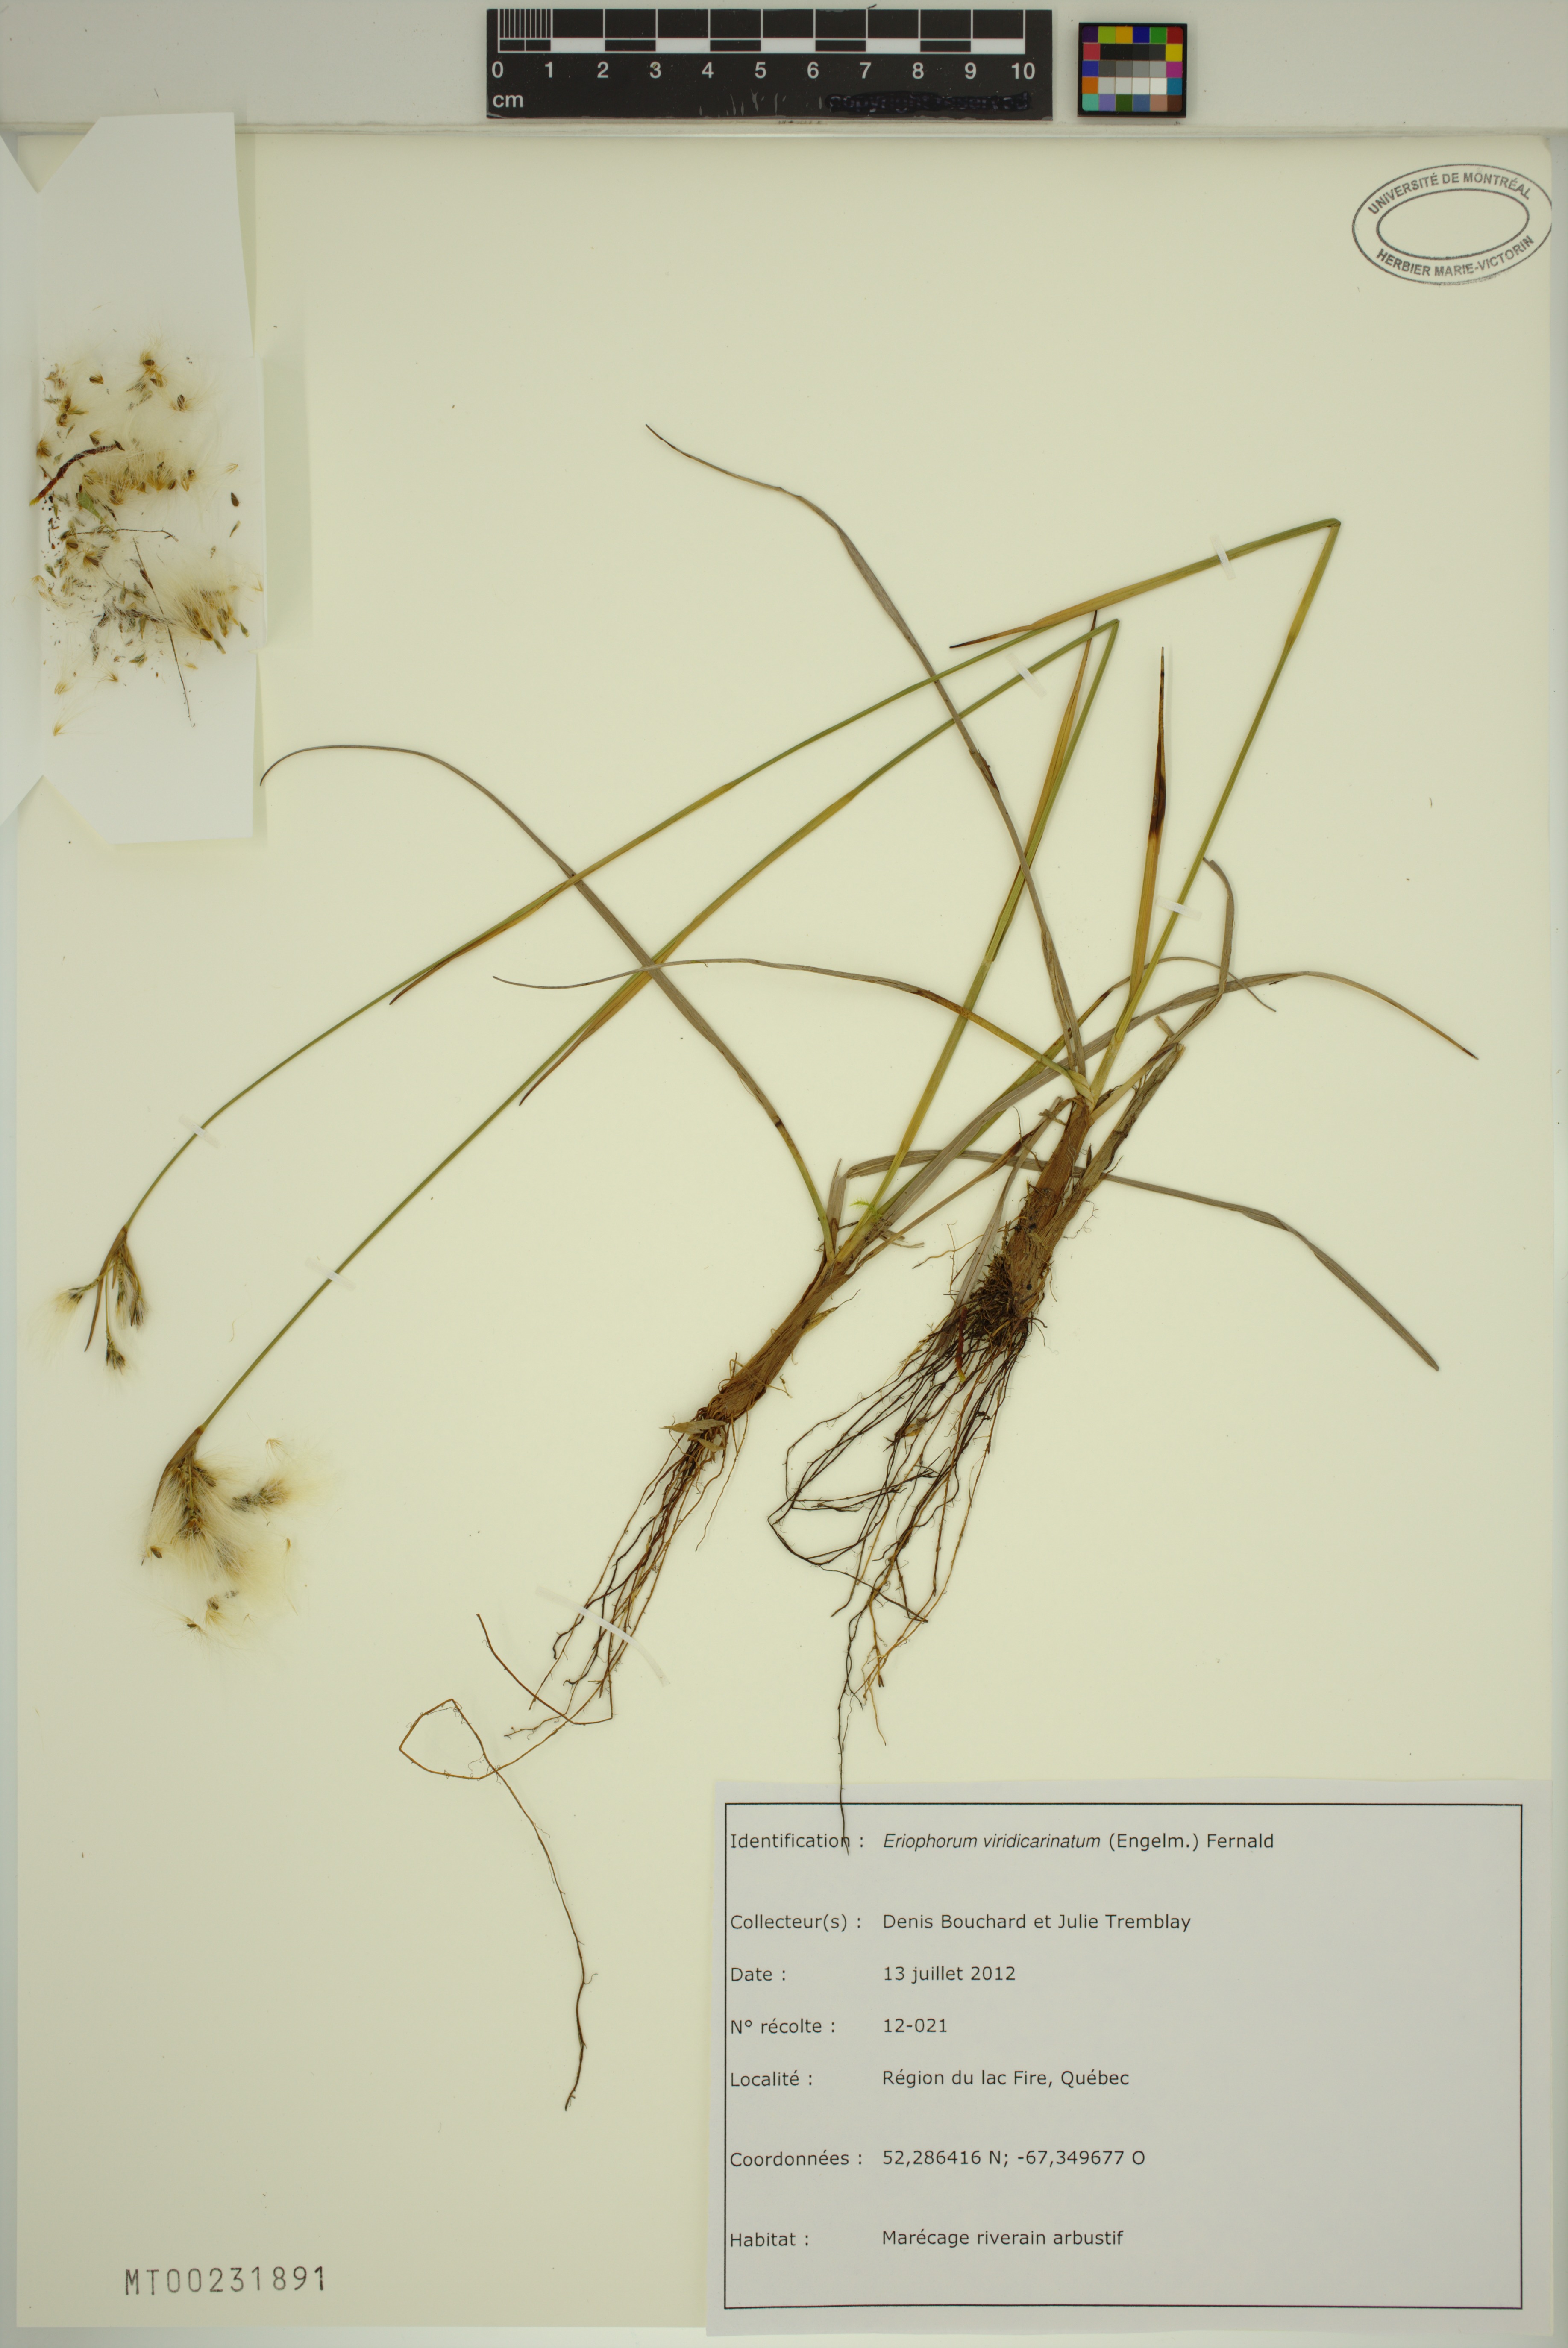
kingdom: Plantae
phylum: Tracheophyta
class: Liliopsida
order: Poales
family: Cyperaceae
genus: Eriophorum
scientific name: Eriophorum viridicarinatum
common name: Green-keeled cottongrass
